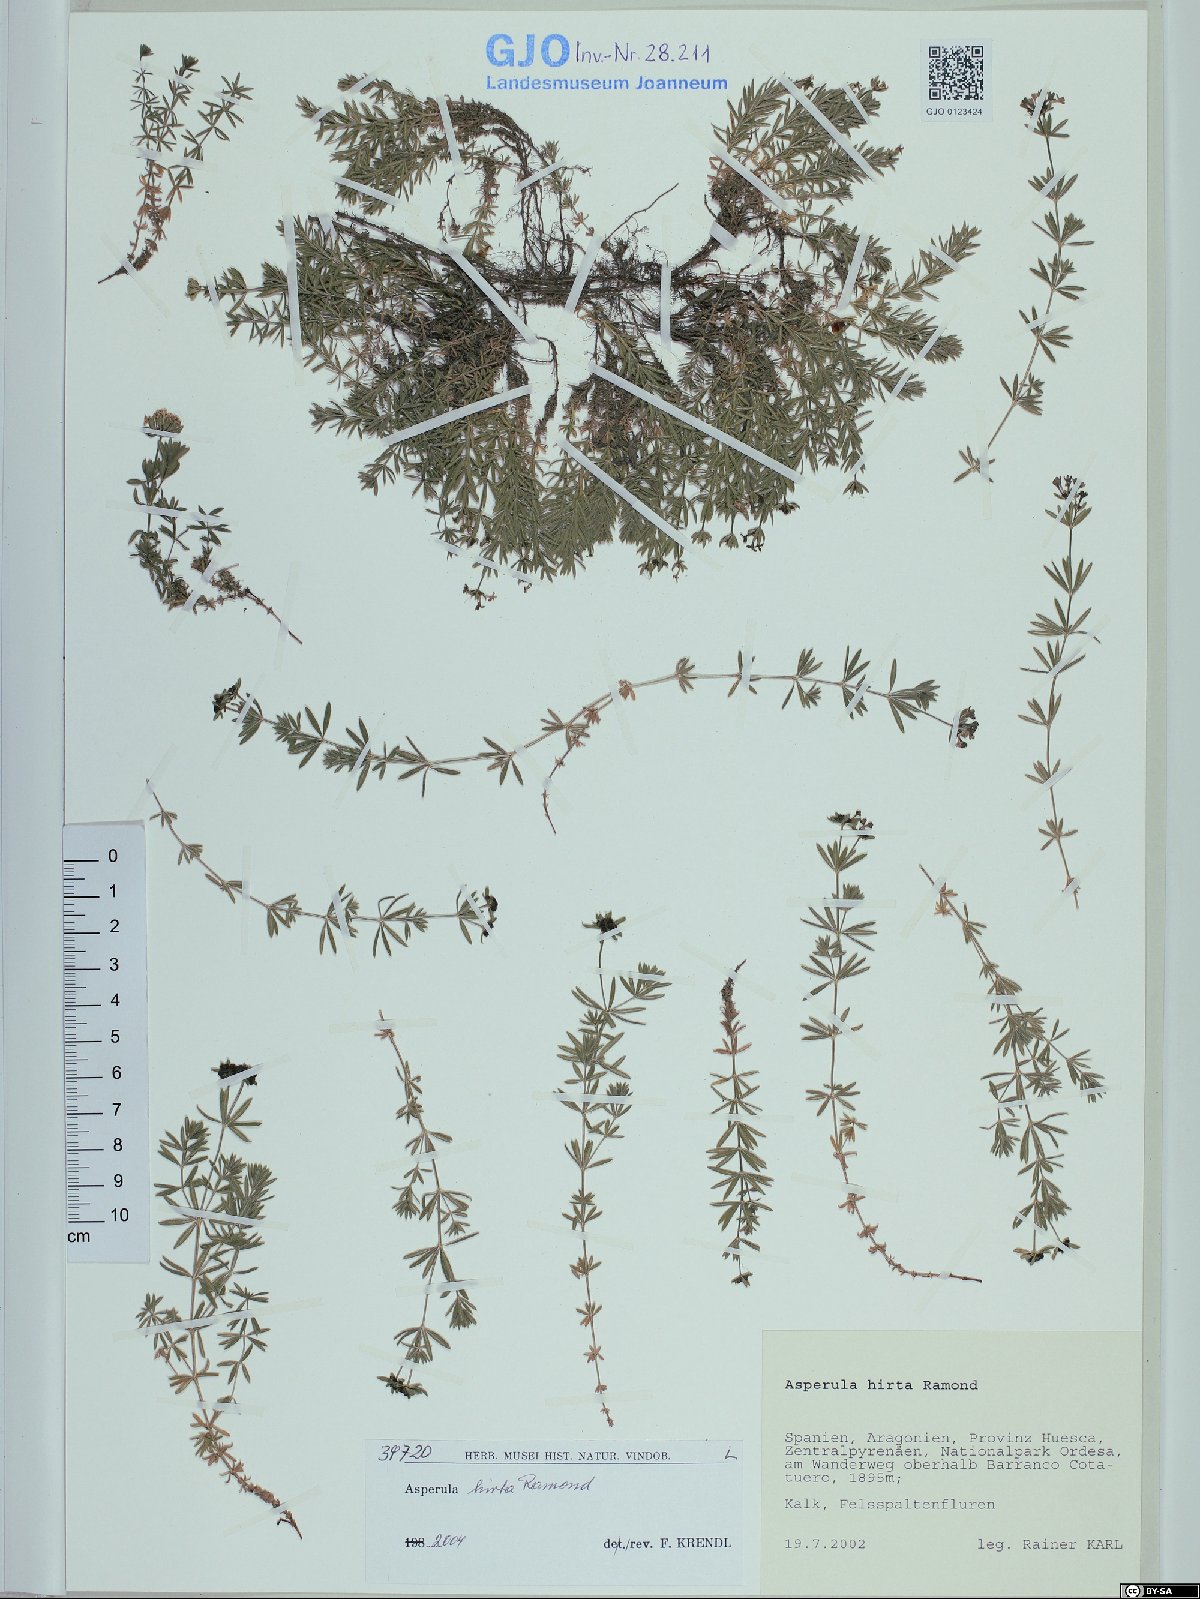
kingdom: Plantae
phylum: Tracheophyta
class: Magnoliopsida
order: Gentianales
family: Rubiaceae
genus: Hexaphylla
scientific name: Hexaphylla hirta
